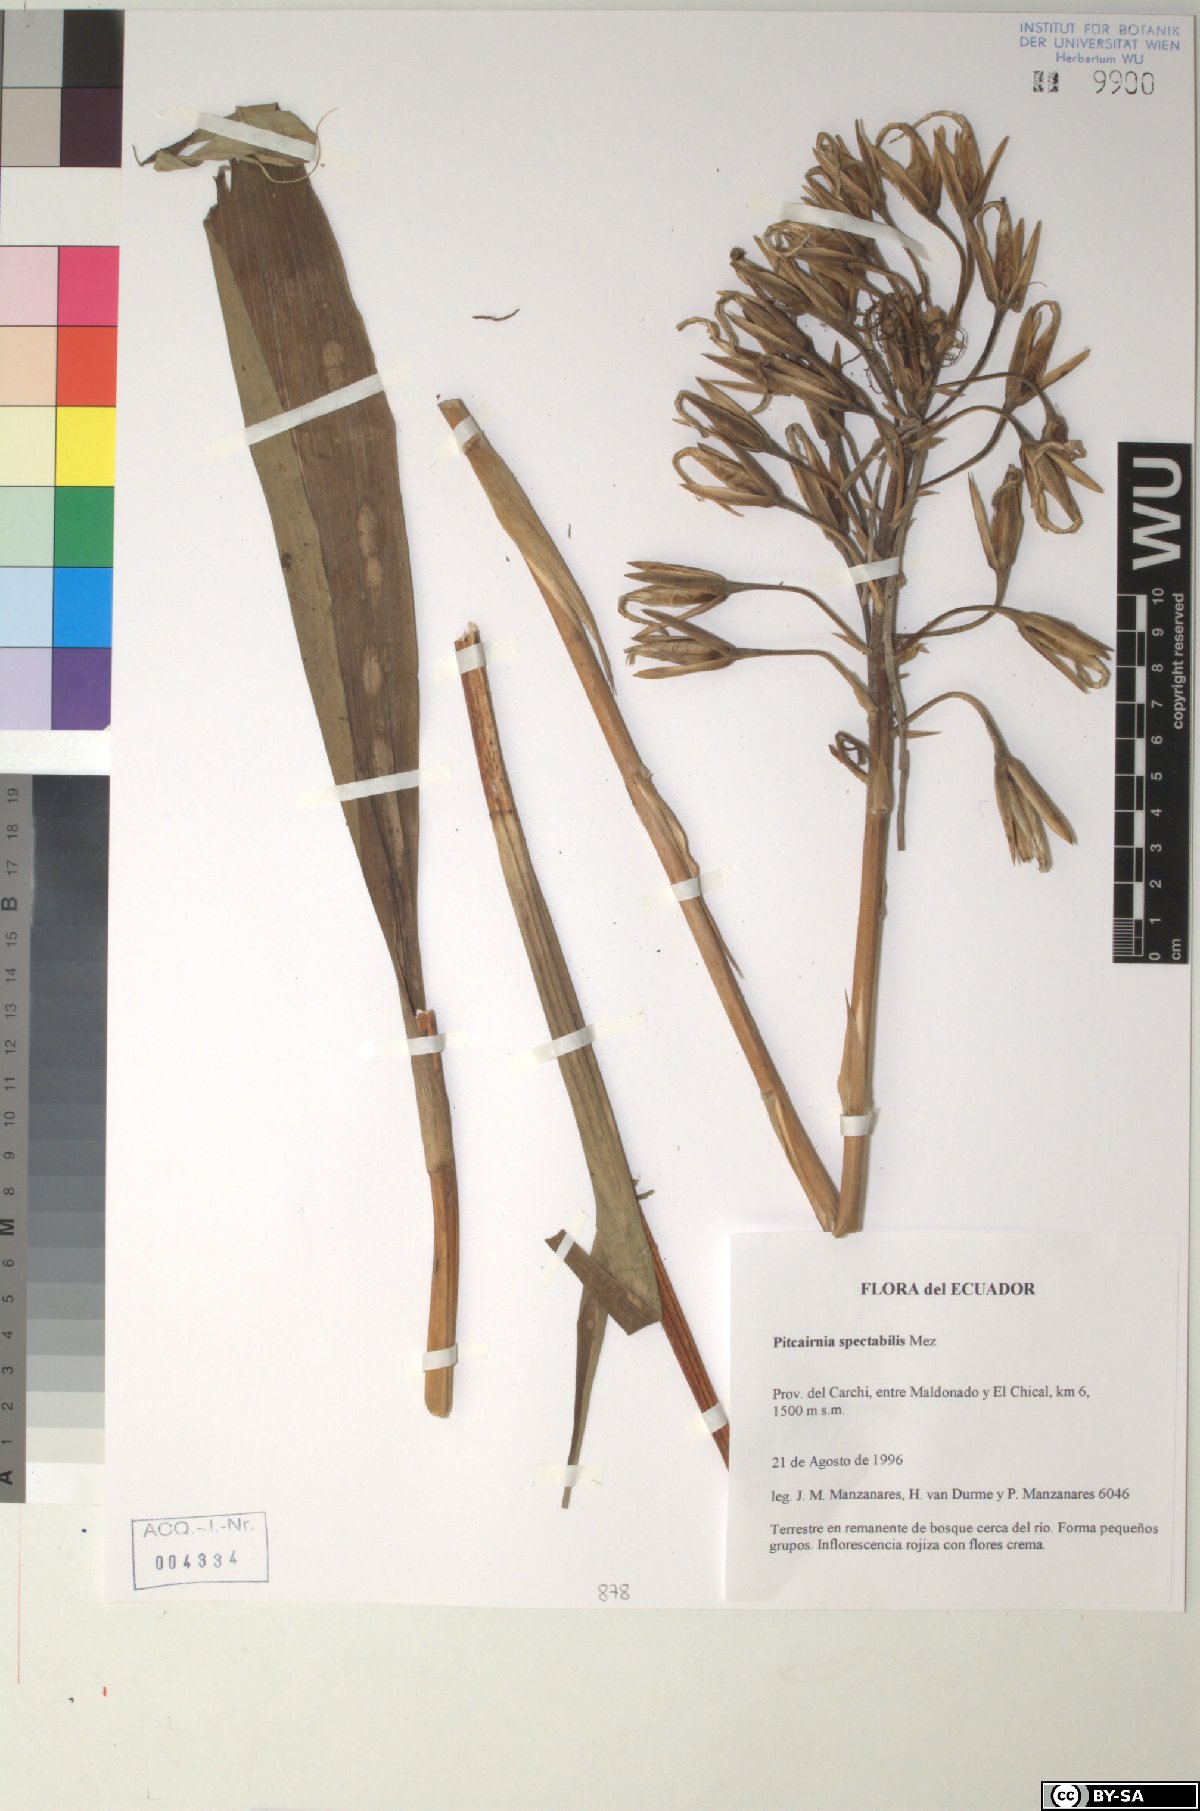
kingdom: Plantae
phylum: Tracheophyta
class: Liliopsida
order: Poales
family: Bromeliaceae
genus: Pitcairnia
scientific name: Pitcairnia spectabilis
